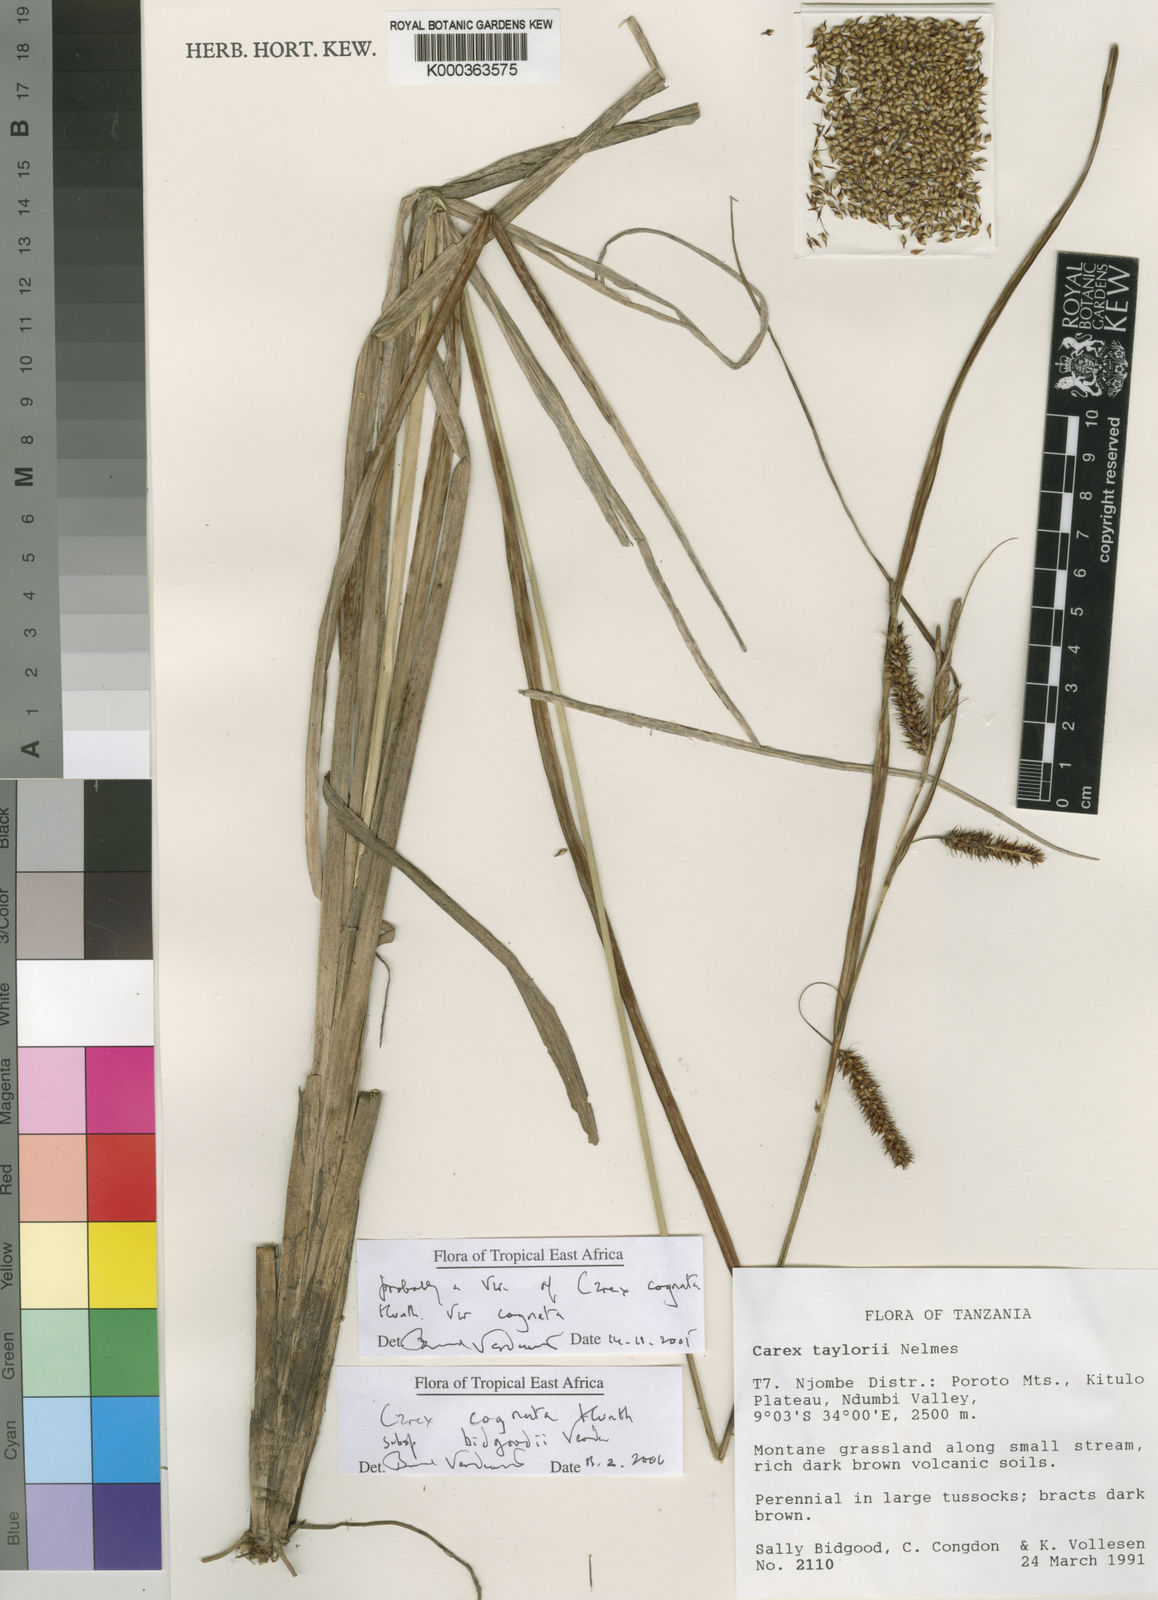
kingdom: Plantae
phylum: Tracheophyta
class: Liliopsida
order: Poales
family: Cyperaceae
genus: Carex
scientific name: Carex cognata
